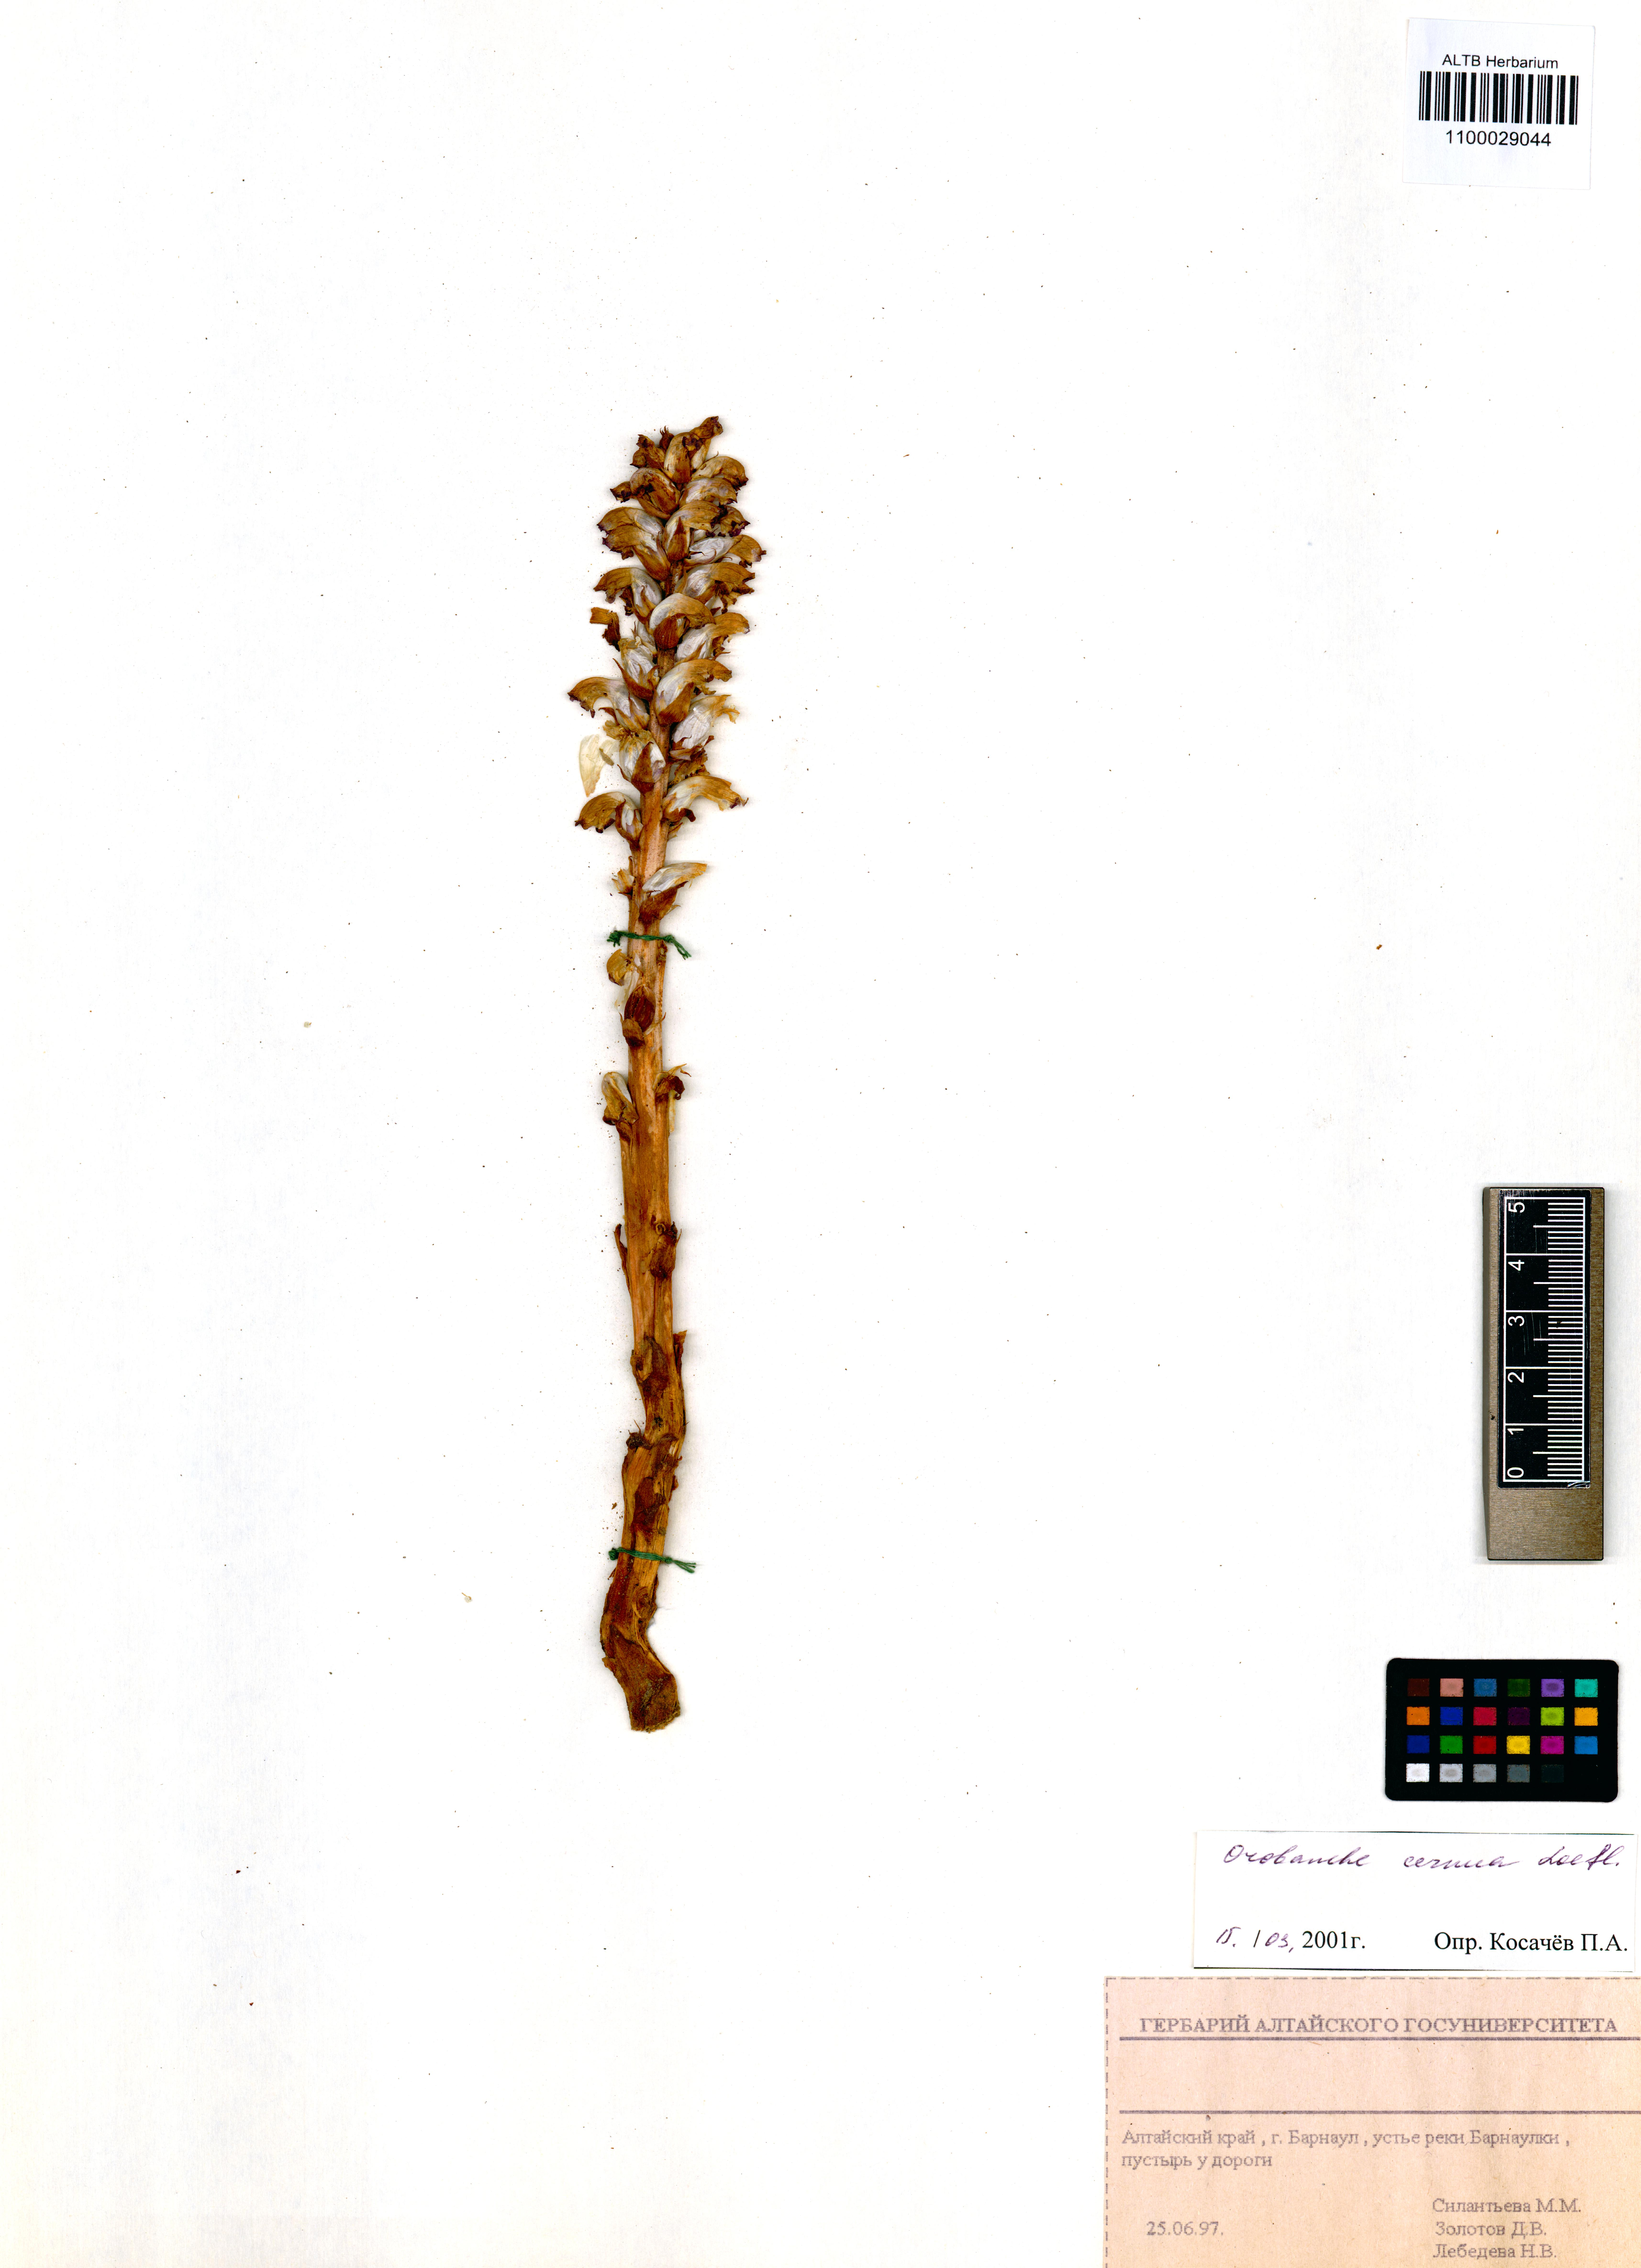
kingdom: Plantae
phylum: Tracheophyta
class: Magnoliopsida
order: Lamiales
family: Orobanchaceae
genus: Orobanche
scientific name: Orobanche cernua
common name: Australian broomrape
